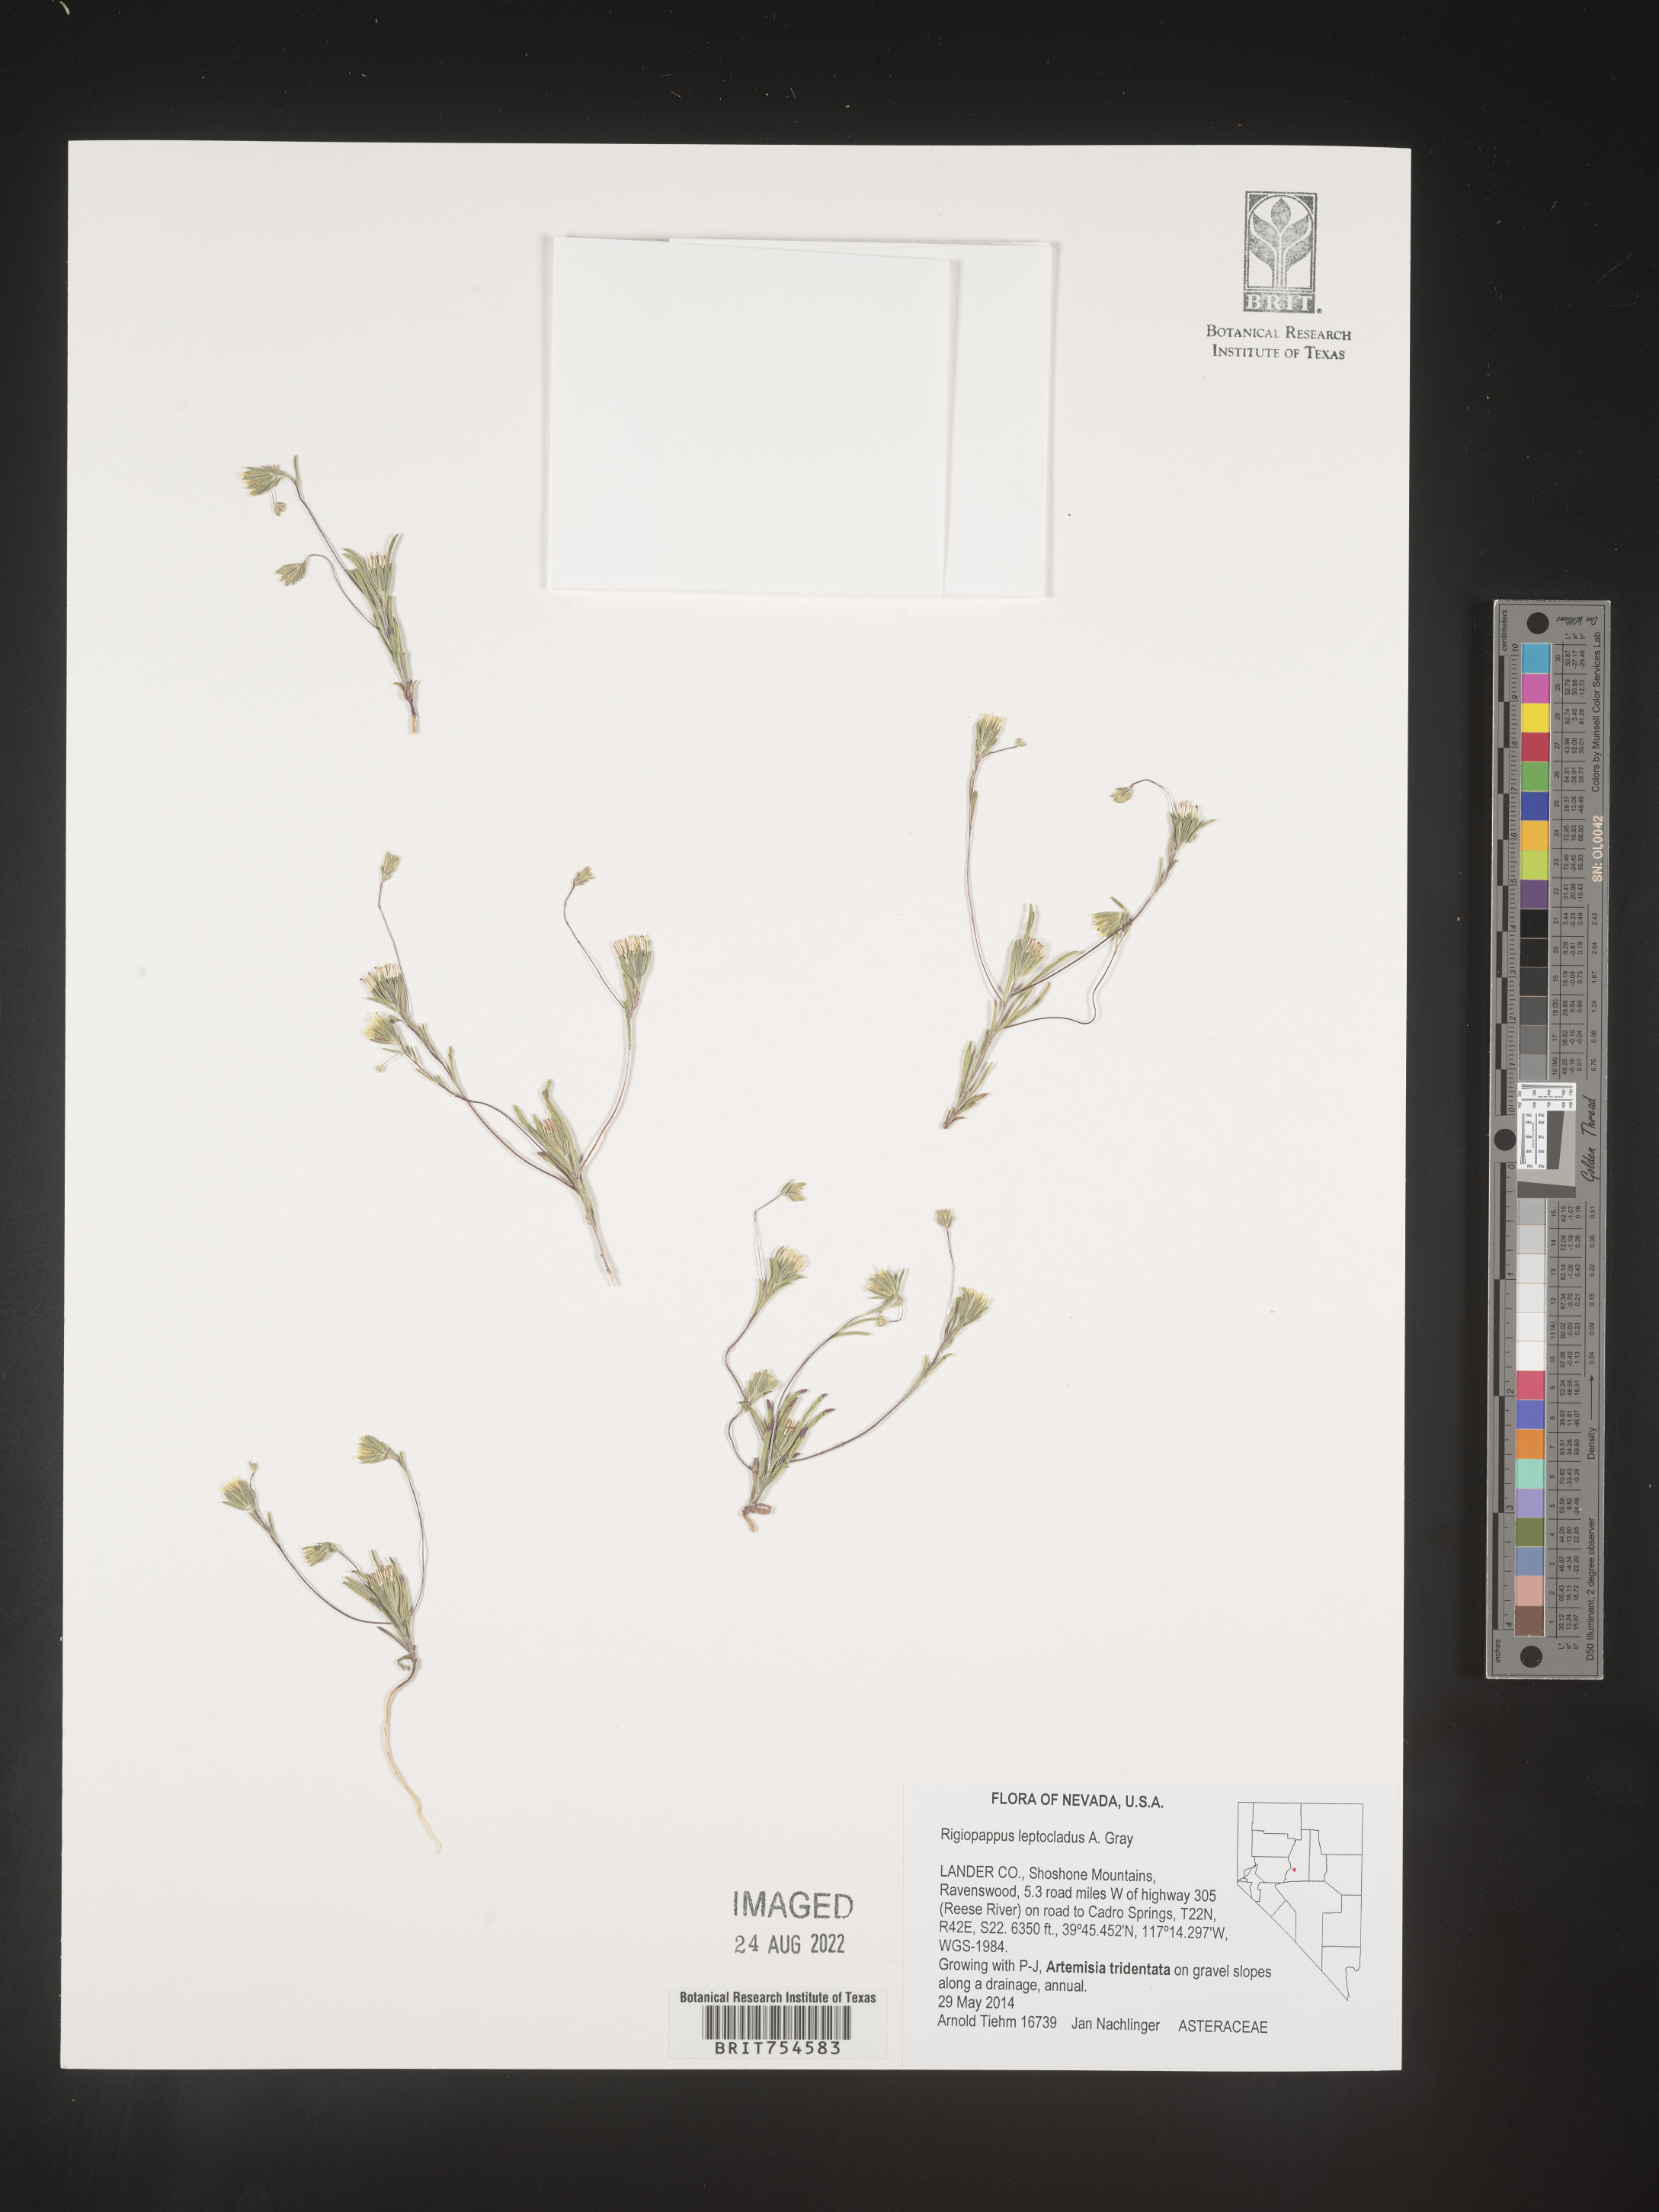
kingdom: Plantae
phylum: Tracheophyta
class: Magnoliopsida
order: Asterales
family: Asteraceae
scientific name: Asteraceae
